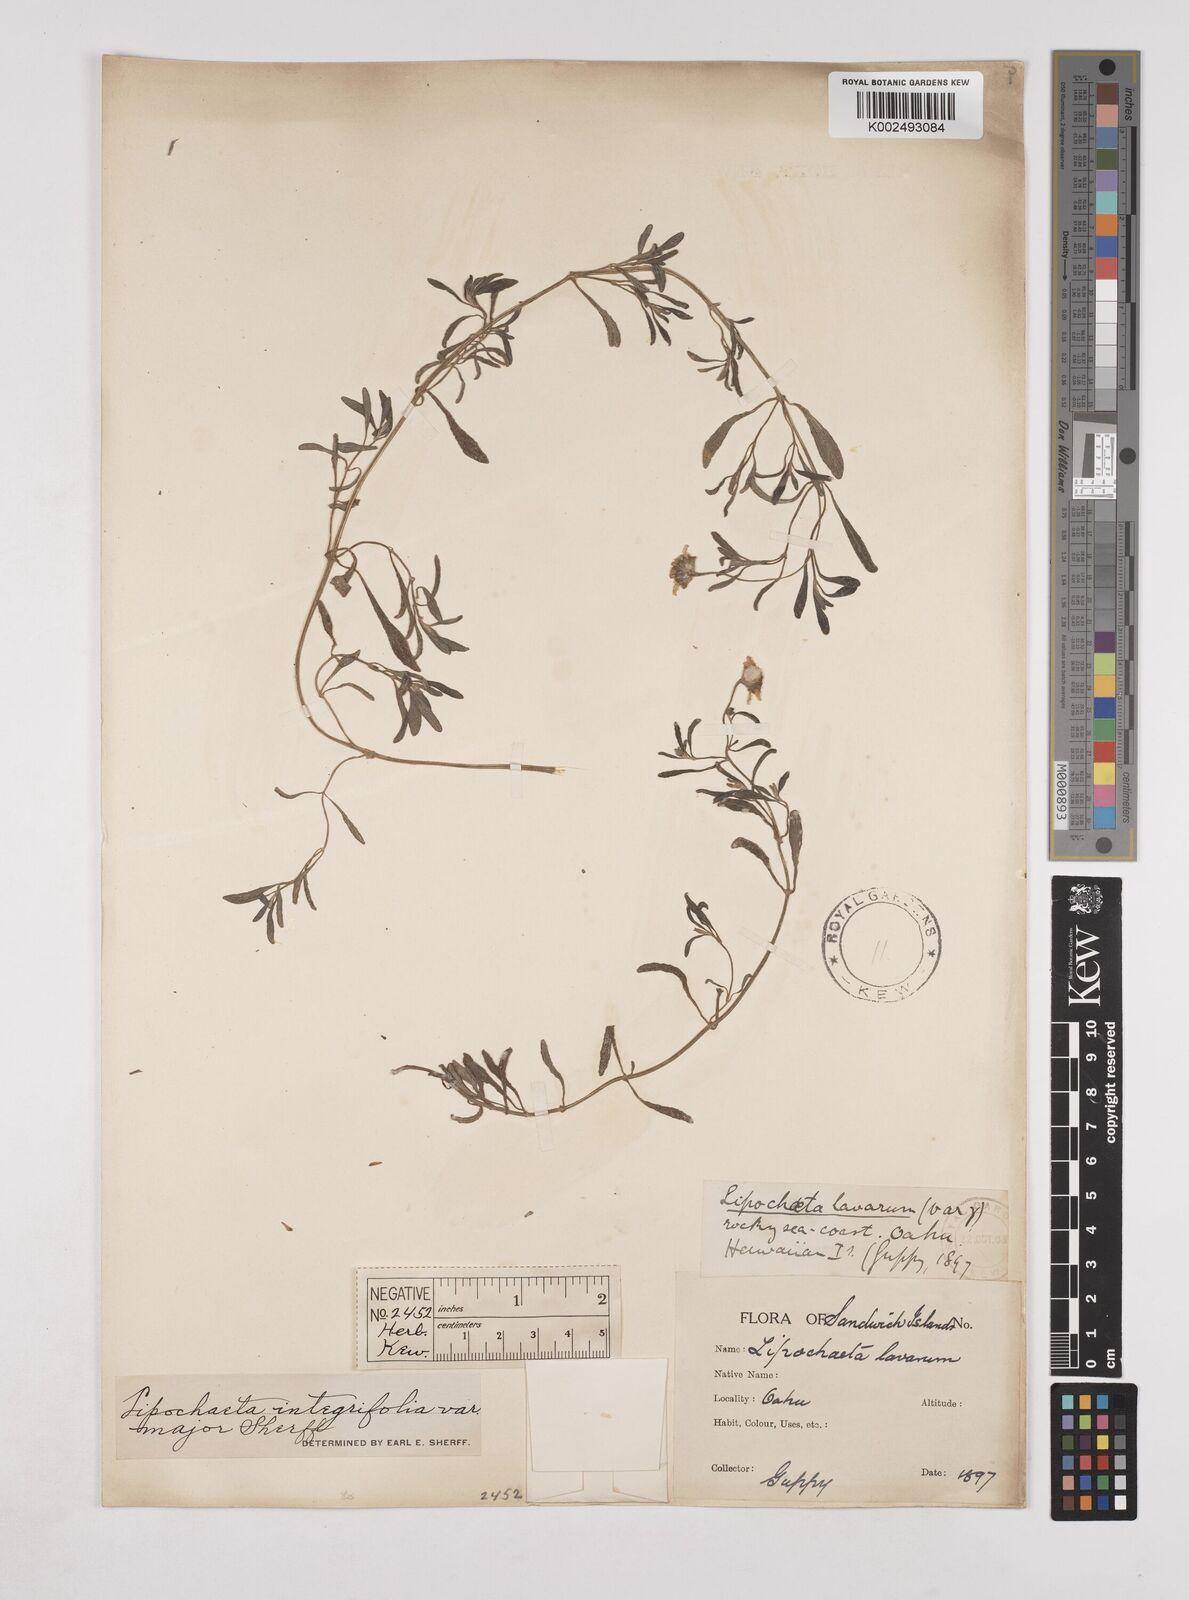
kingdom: Plantae
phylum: Tracheophyta
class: Magnoliopsida
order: Asterales
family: Asteraceae
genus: Lipochaeta
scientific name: Lipochaeta integrifolia
